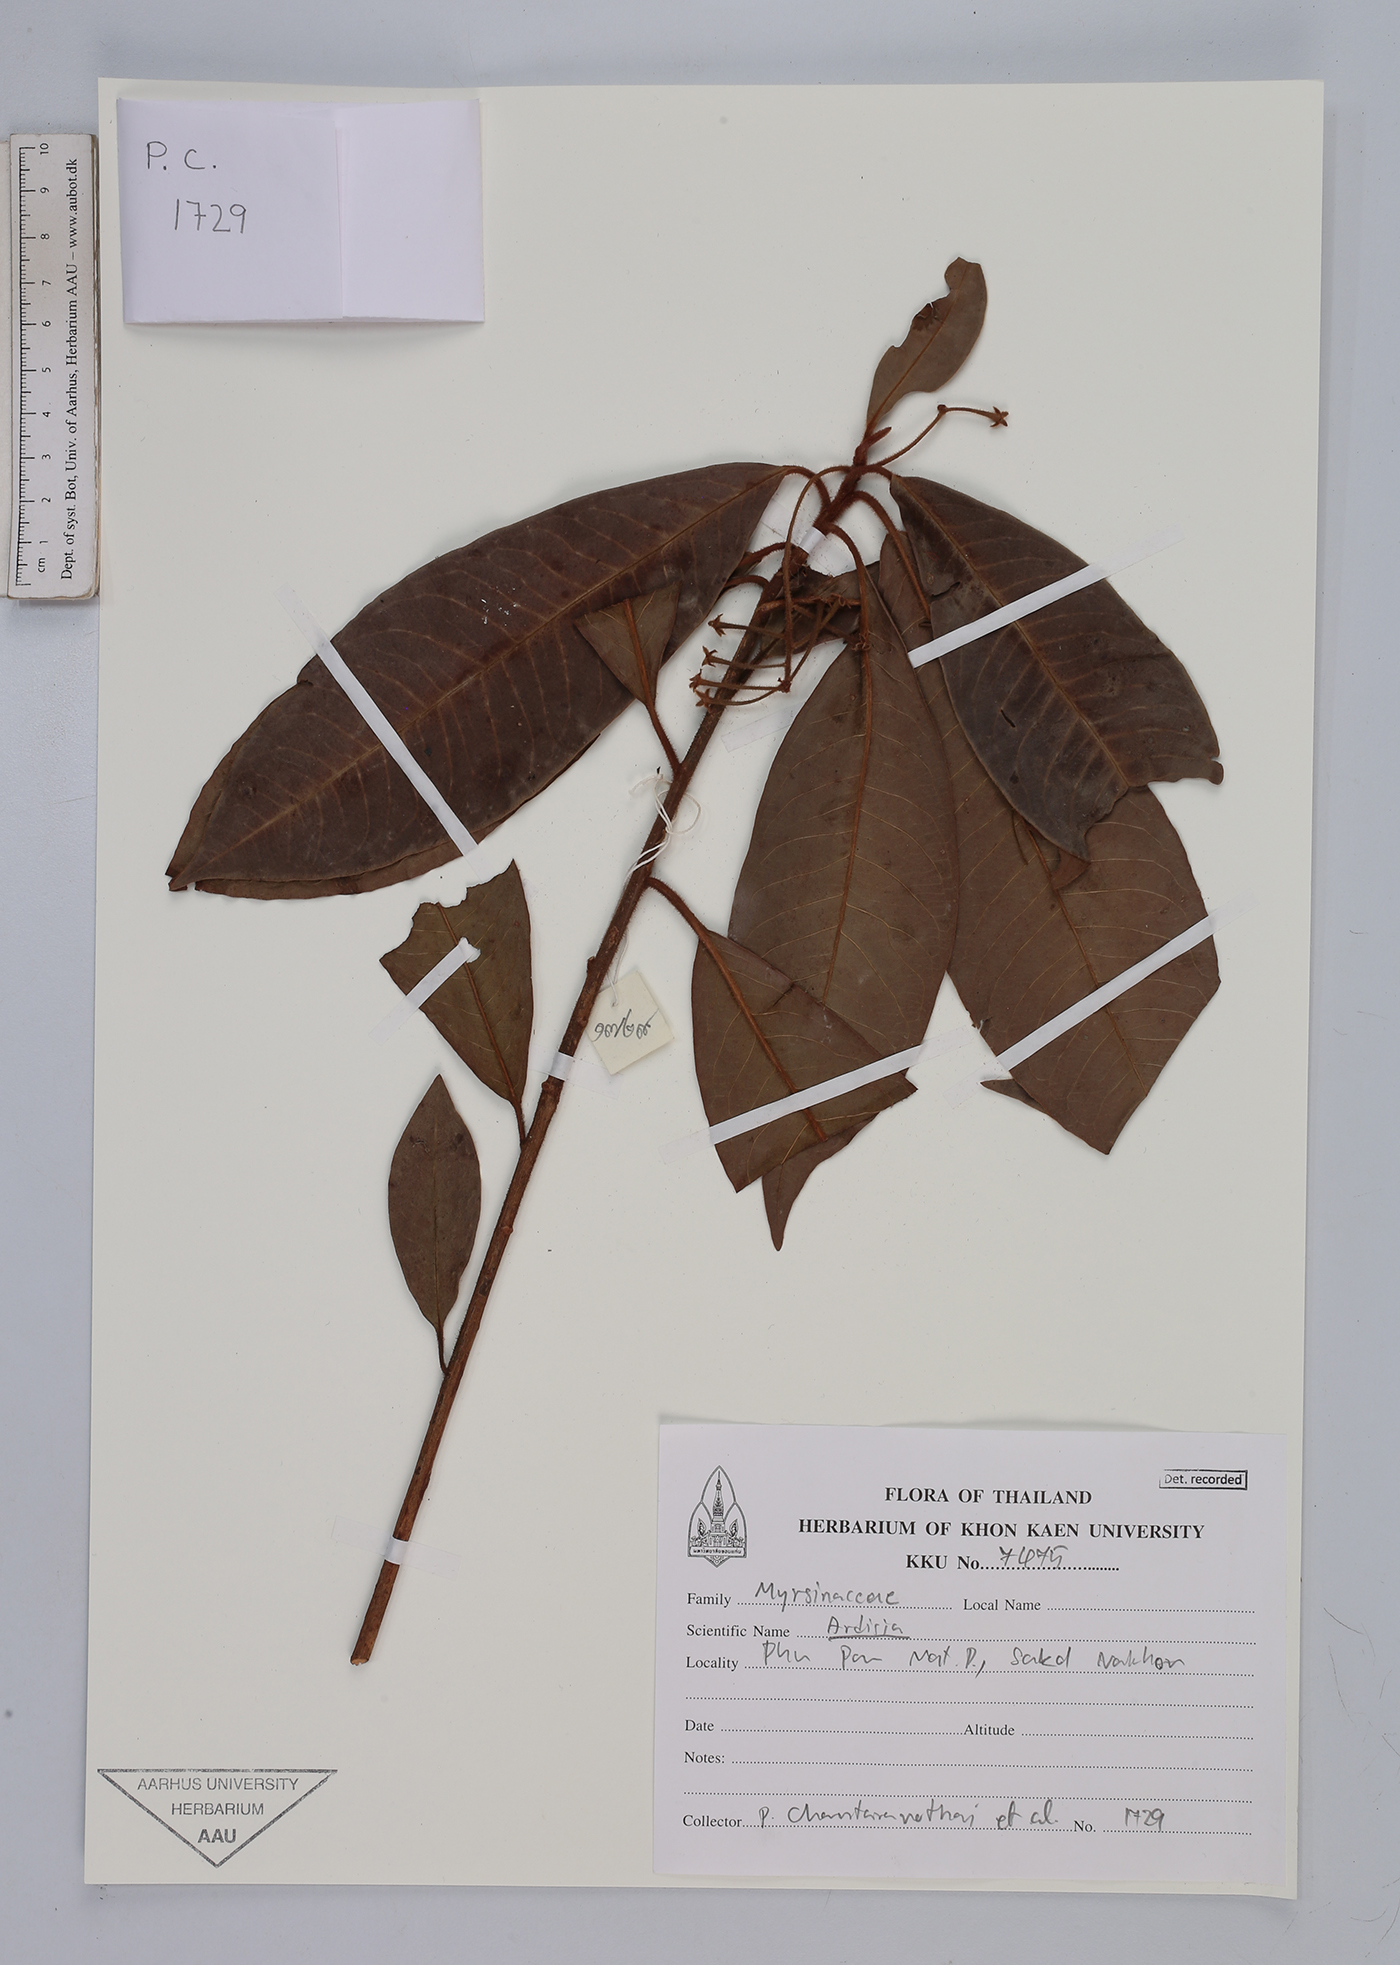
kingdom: Plantae
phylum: Tracheophyta
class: Magnoliopsida
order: Ericales
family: Primulaceae
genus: Ardisia
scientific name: Ardisia
